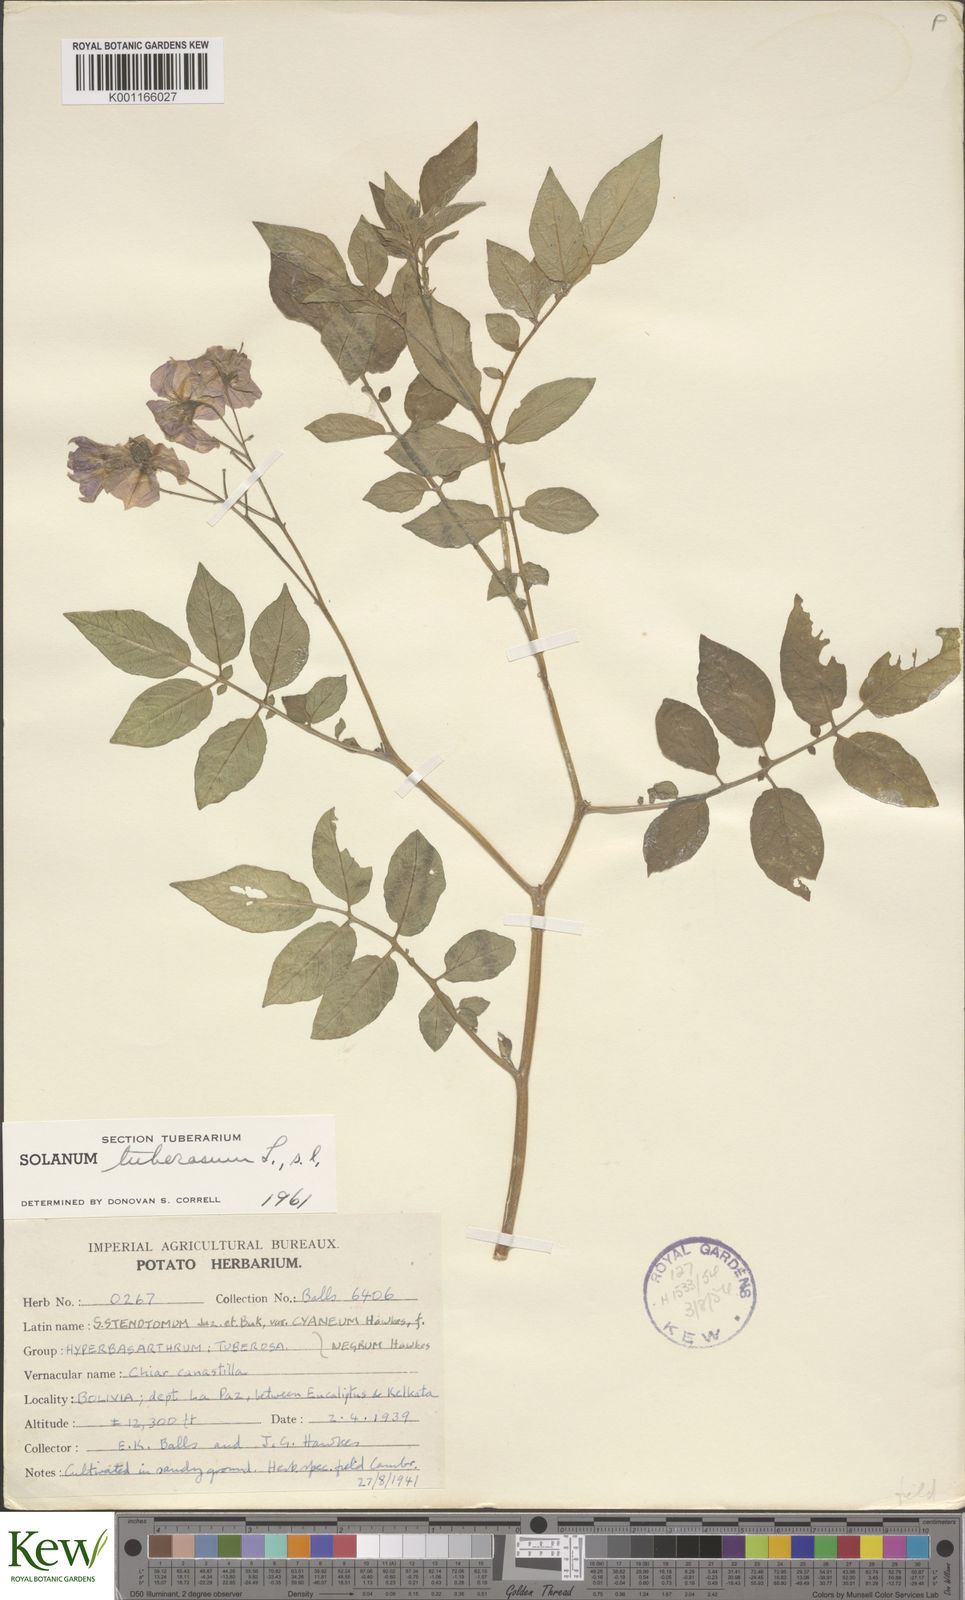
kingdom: Plantae
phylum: Tracheophyta
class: Magnoliopsida
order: Solanales
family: Solanaceae
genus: Solanum
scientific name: Solanum tuberosum
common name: Potato
